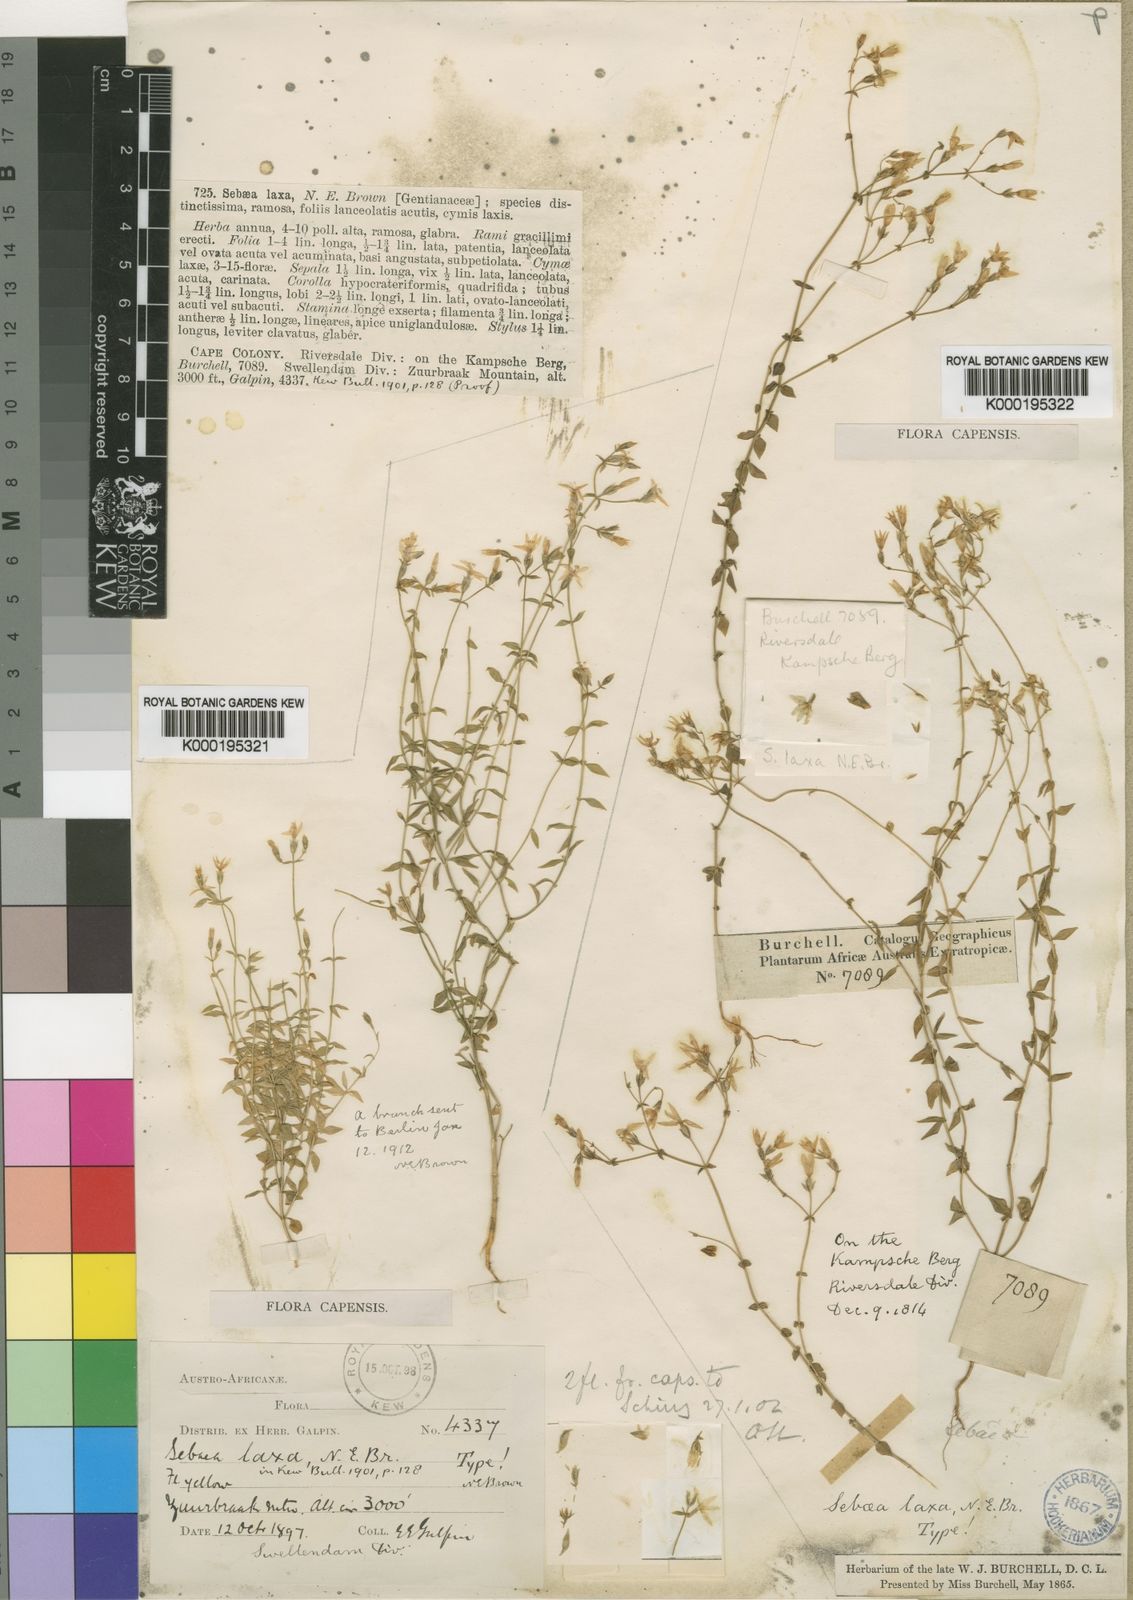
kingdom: Plantae
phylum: Tracheophyta
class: Magnoliopsida
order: Gentianales
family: Gentianaceae
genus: Sebaea
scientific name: Sebaea laxa
